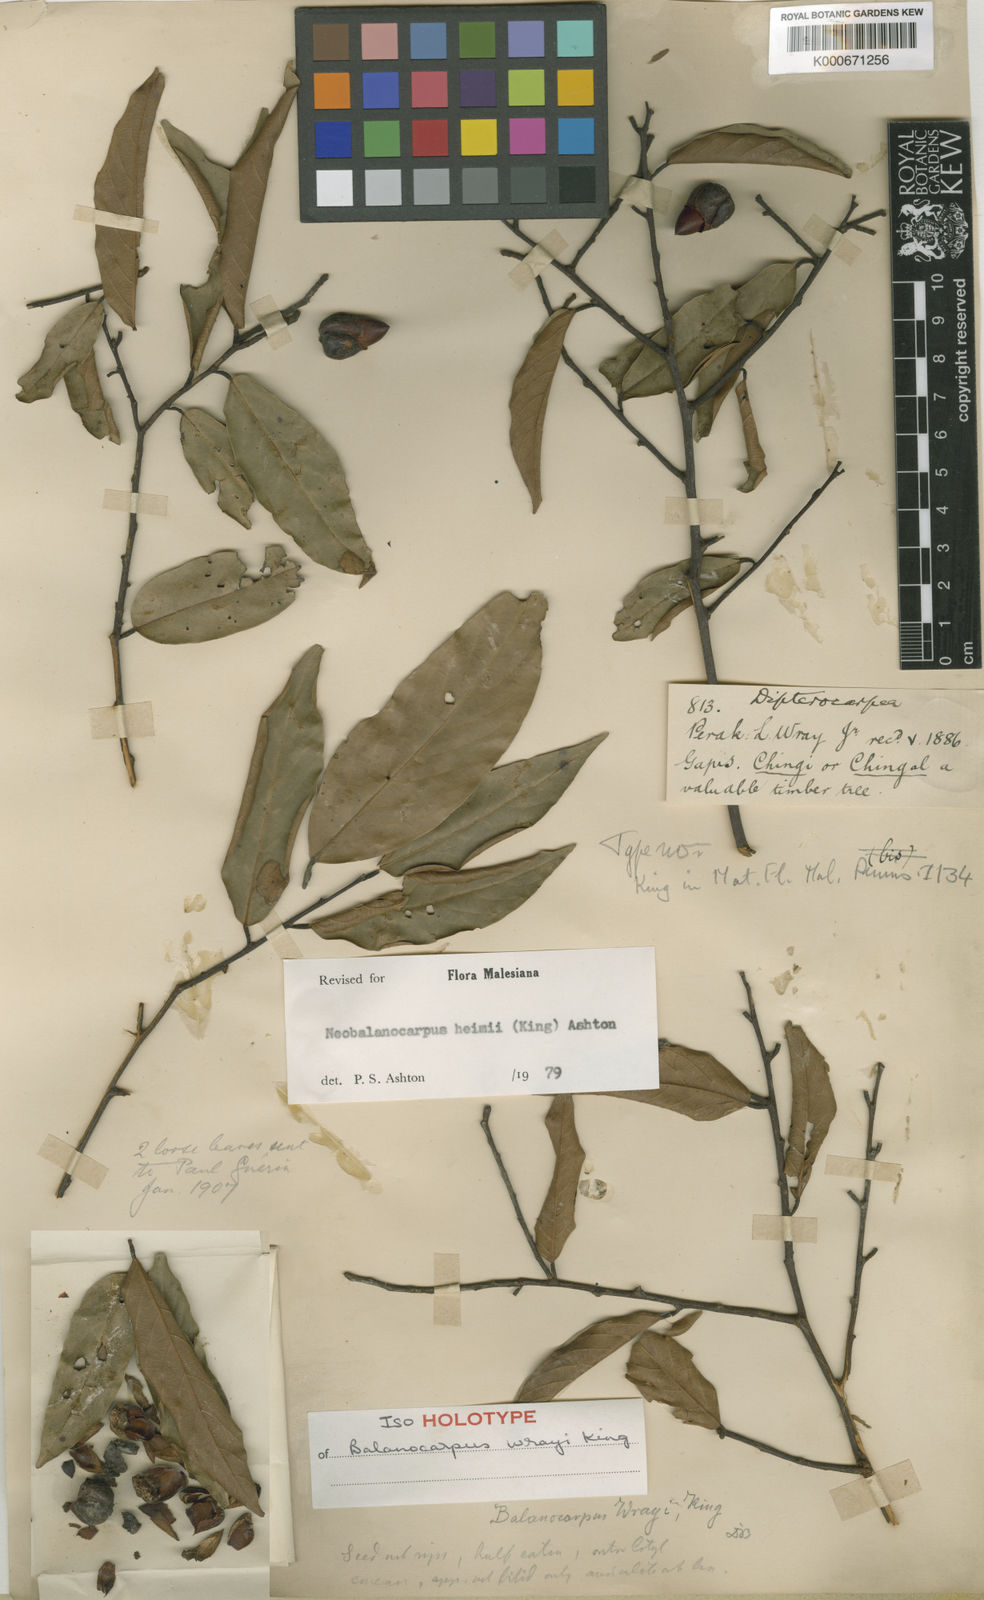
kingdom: Plantae
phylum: Tracheophyta
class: Magnoliopsida
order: Malvales
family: Dipterocarpaceae
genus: Neobalanocarpus
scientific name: Neobalanocarpus
